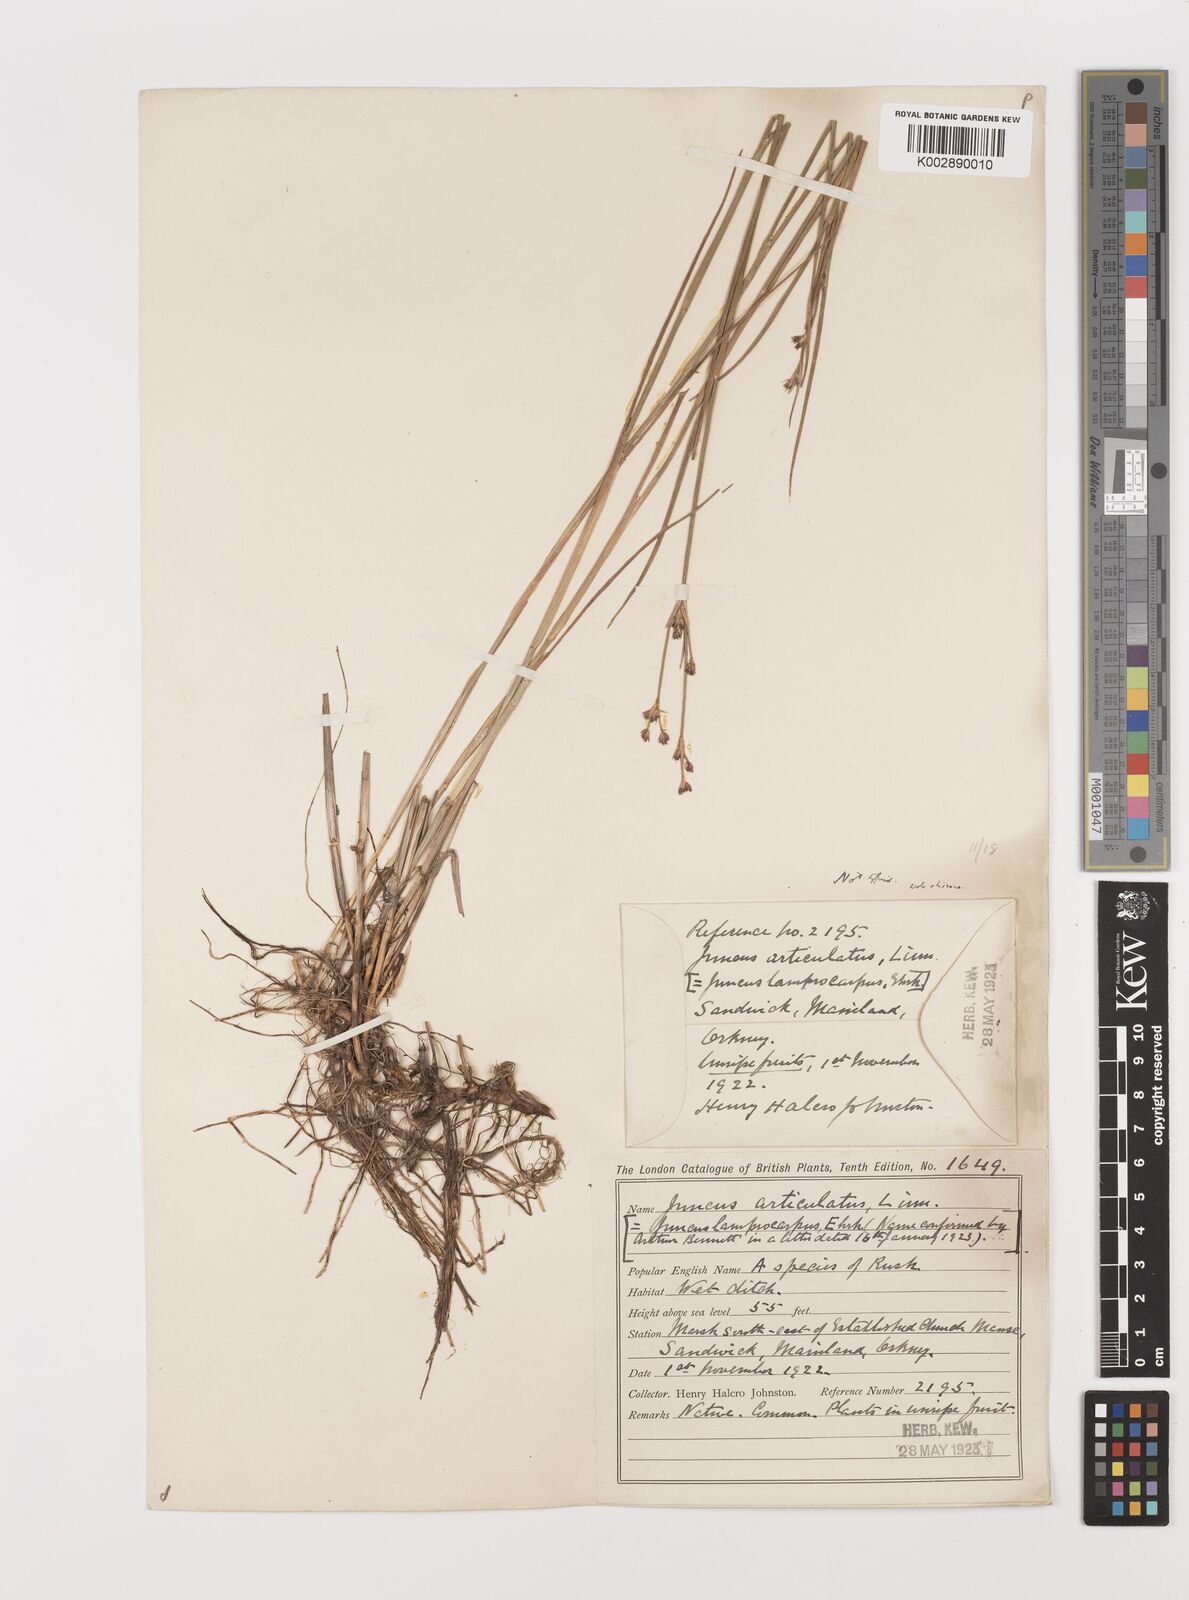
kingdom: Plantae
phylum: Tracheophyta
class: Liliopsida
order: Poales
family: Juncaceae
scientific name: Juncaceae
